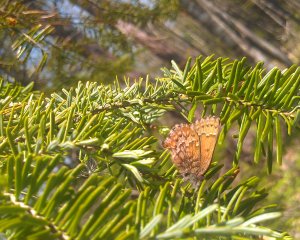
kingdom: Animalia
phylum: Arthropoda
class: Insecta
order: Lepidoptera
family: Lycaenidae
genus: Incisalia
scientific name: Incisalia niphon
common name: Eastern Pine Elfin
